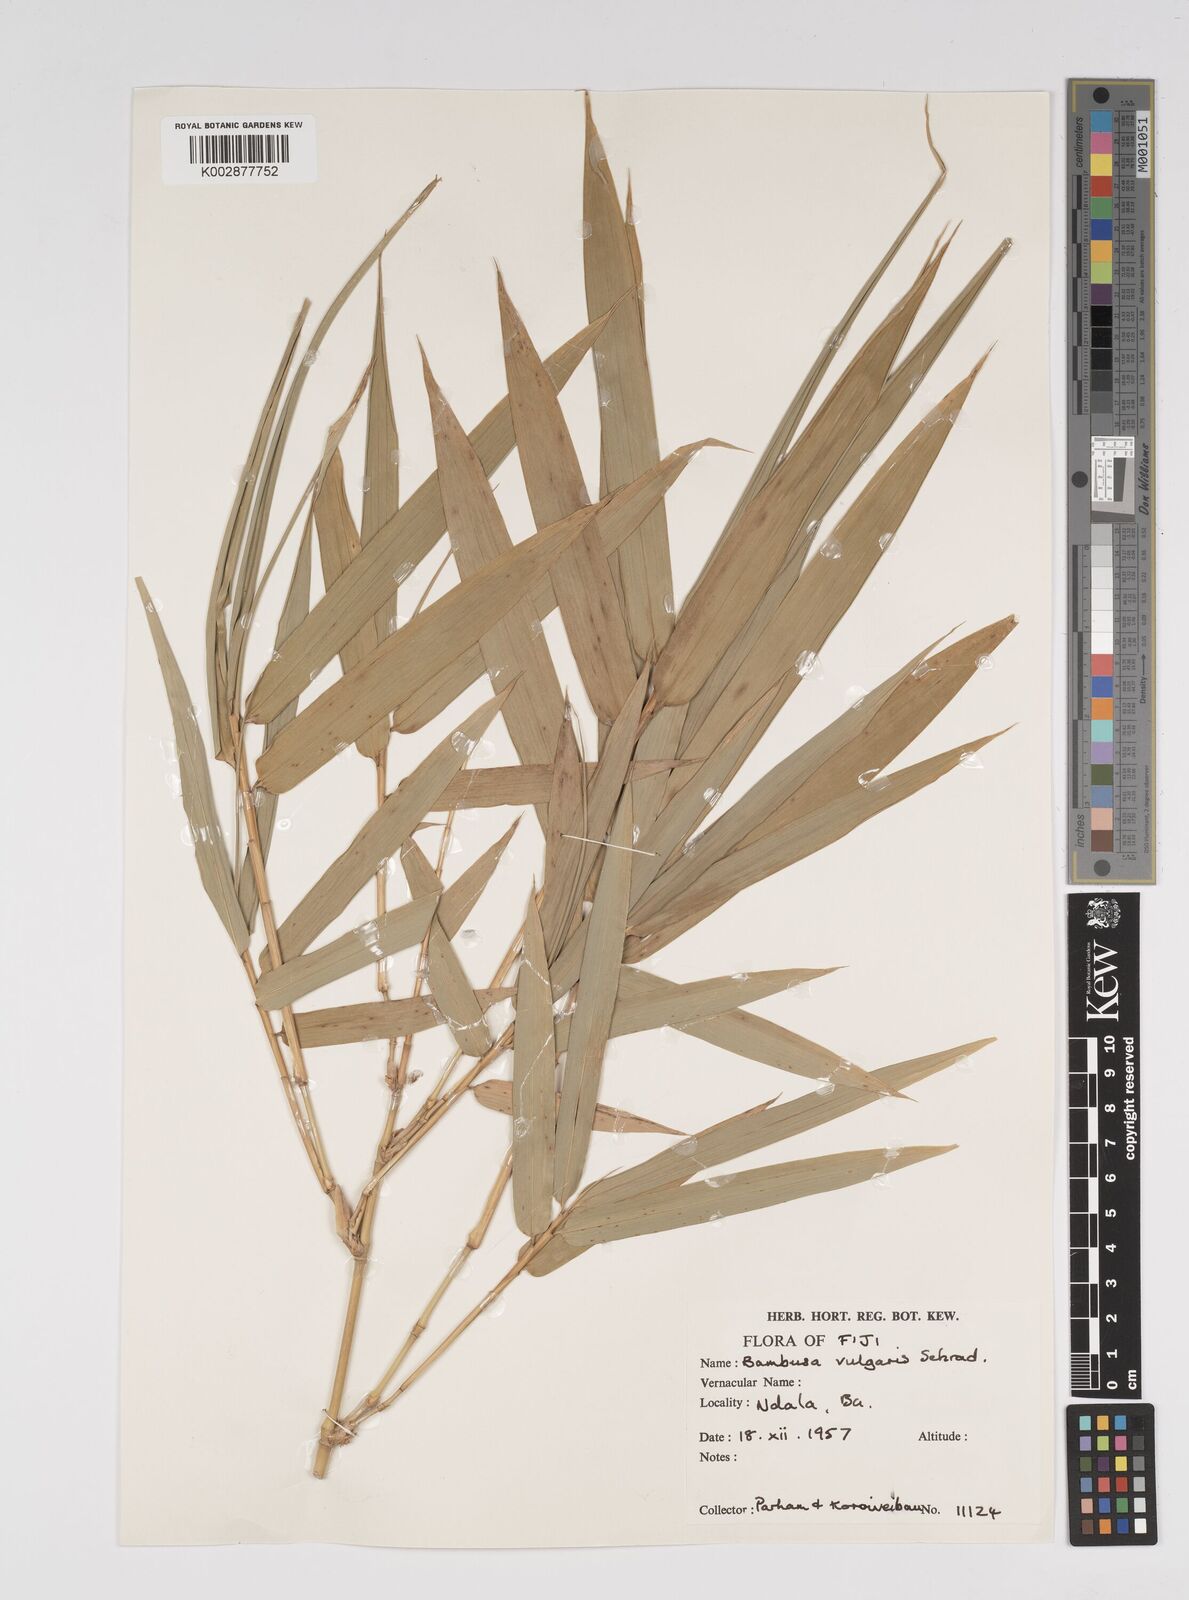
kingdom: Plantae
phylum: Tracheophyta
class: Liliopsida
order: Poales
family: Poaceae
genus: Bambusa
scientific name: Bambusa vulgaris
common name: Common bamboo
